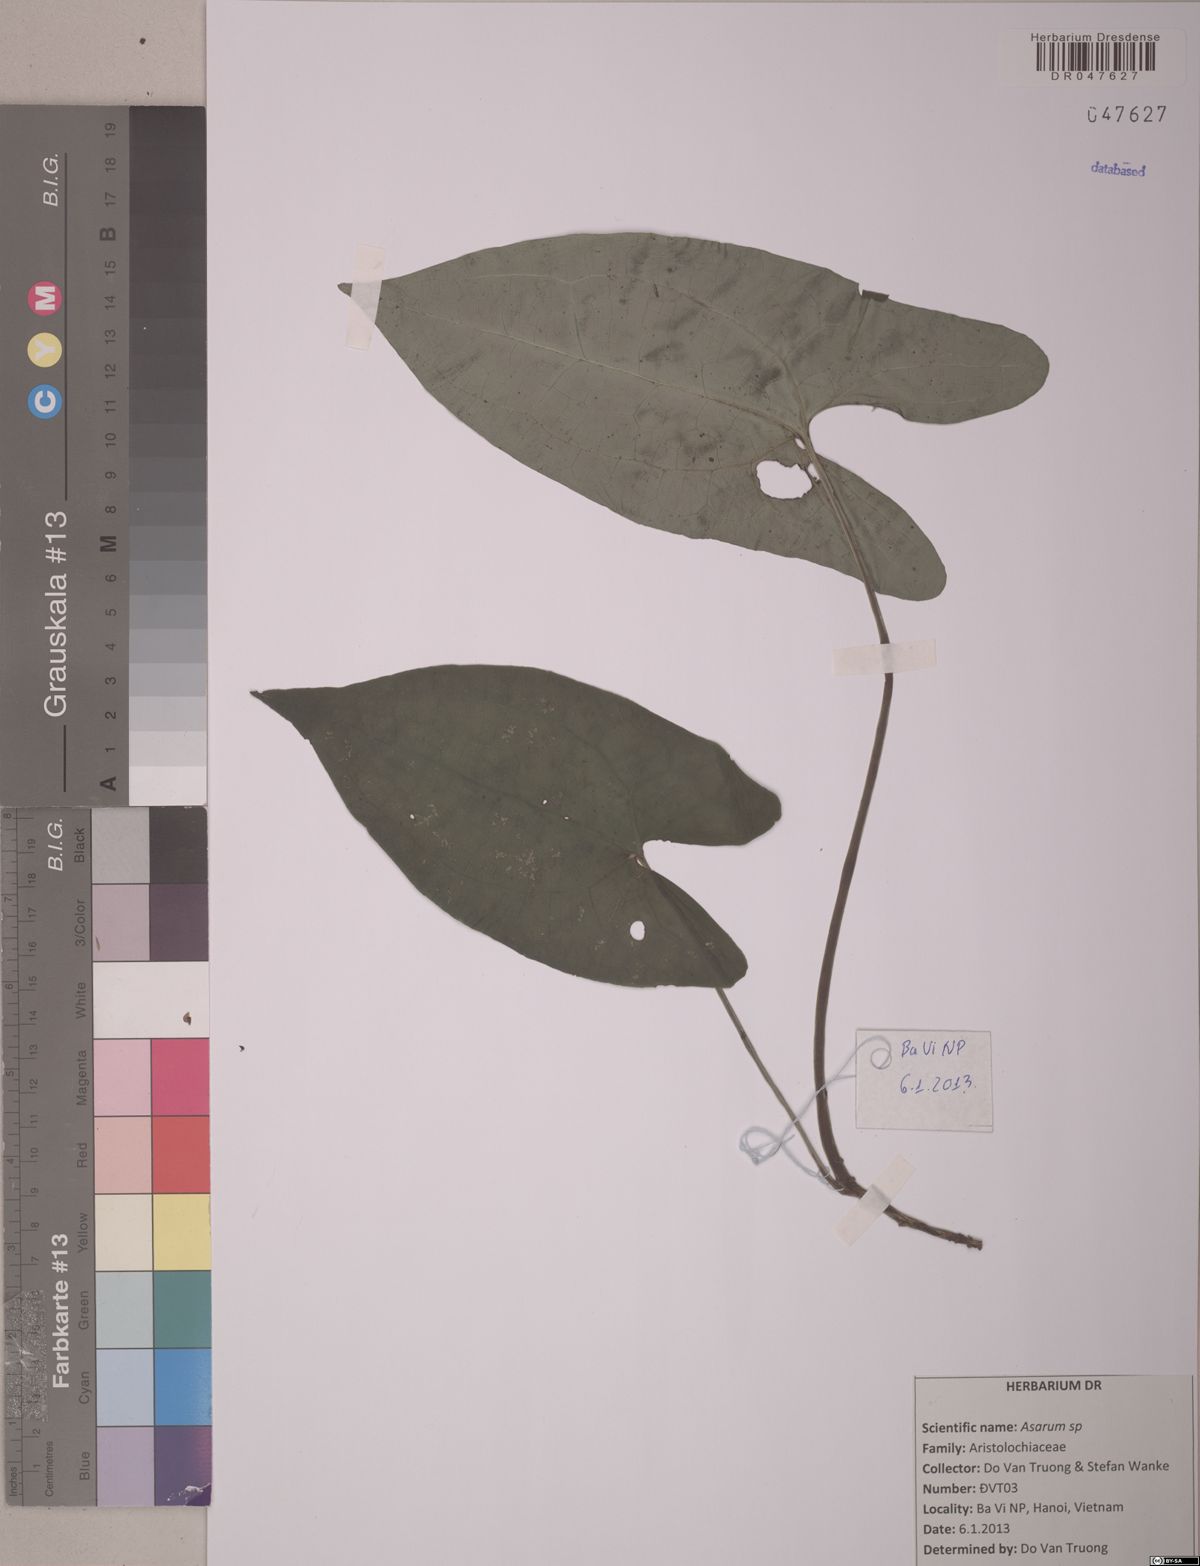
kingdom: Plantae
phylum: Tracheophyta
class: Magnoliopsida
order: Piperales
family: Aristolochiaceae
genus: Asarum
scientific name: Asarum
